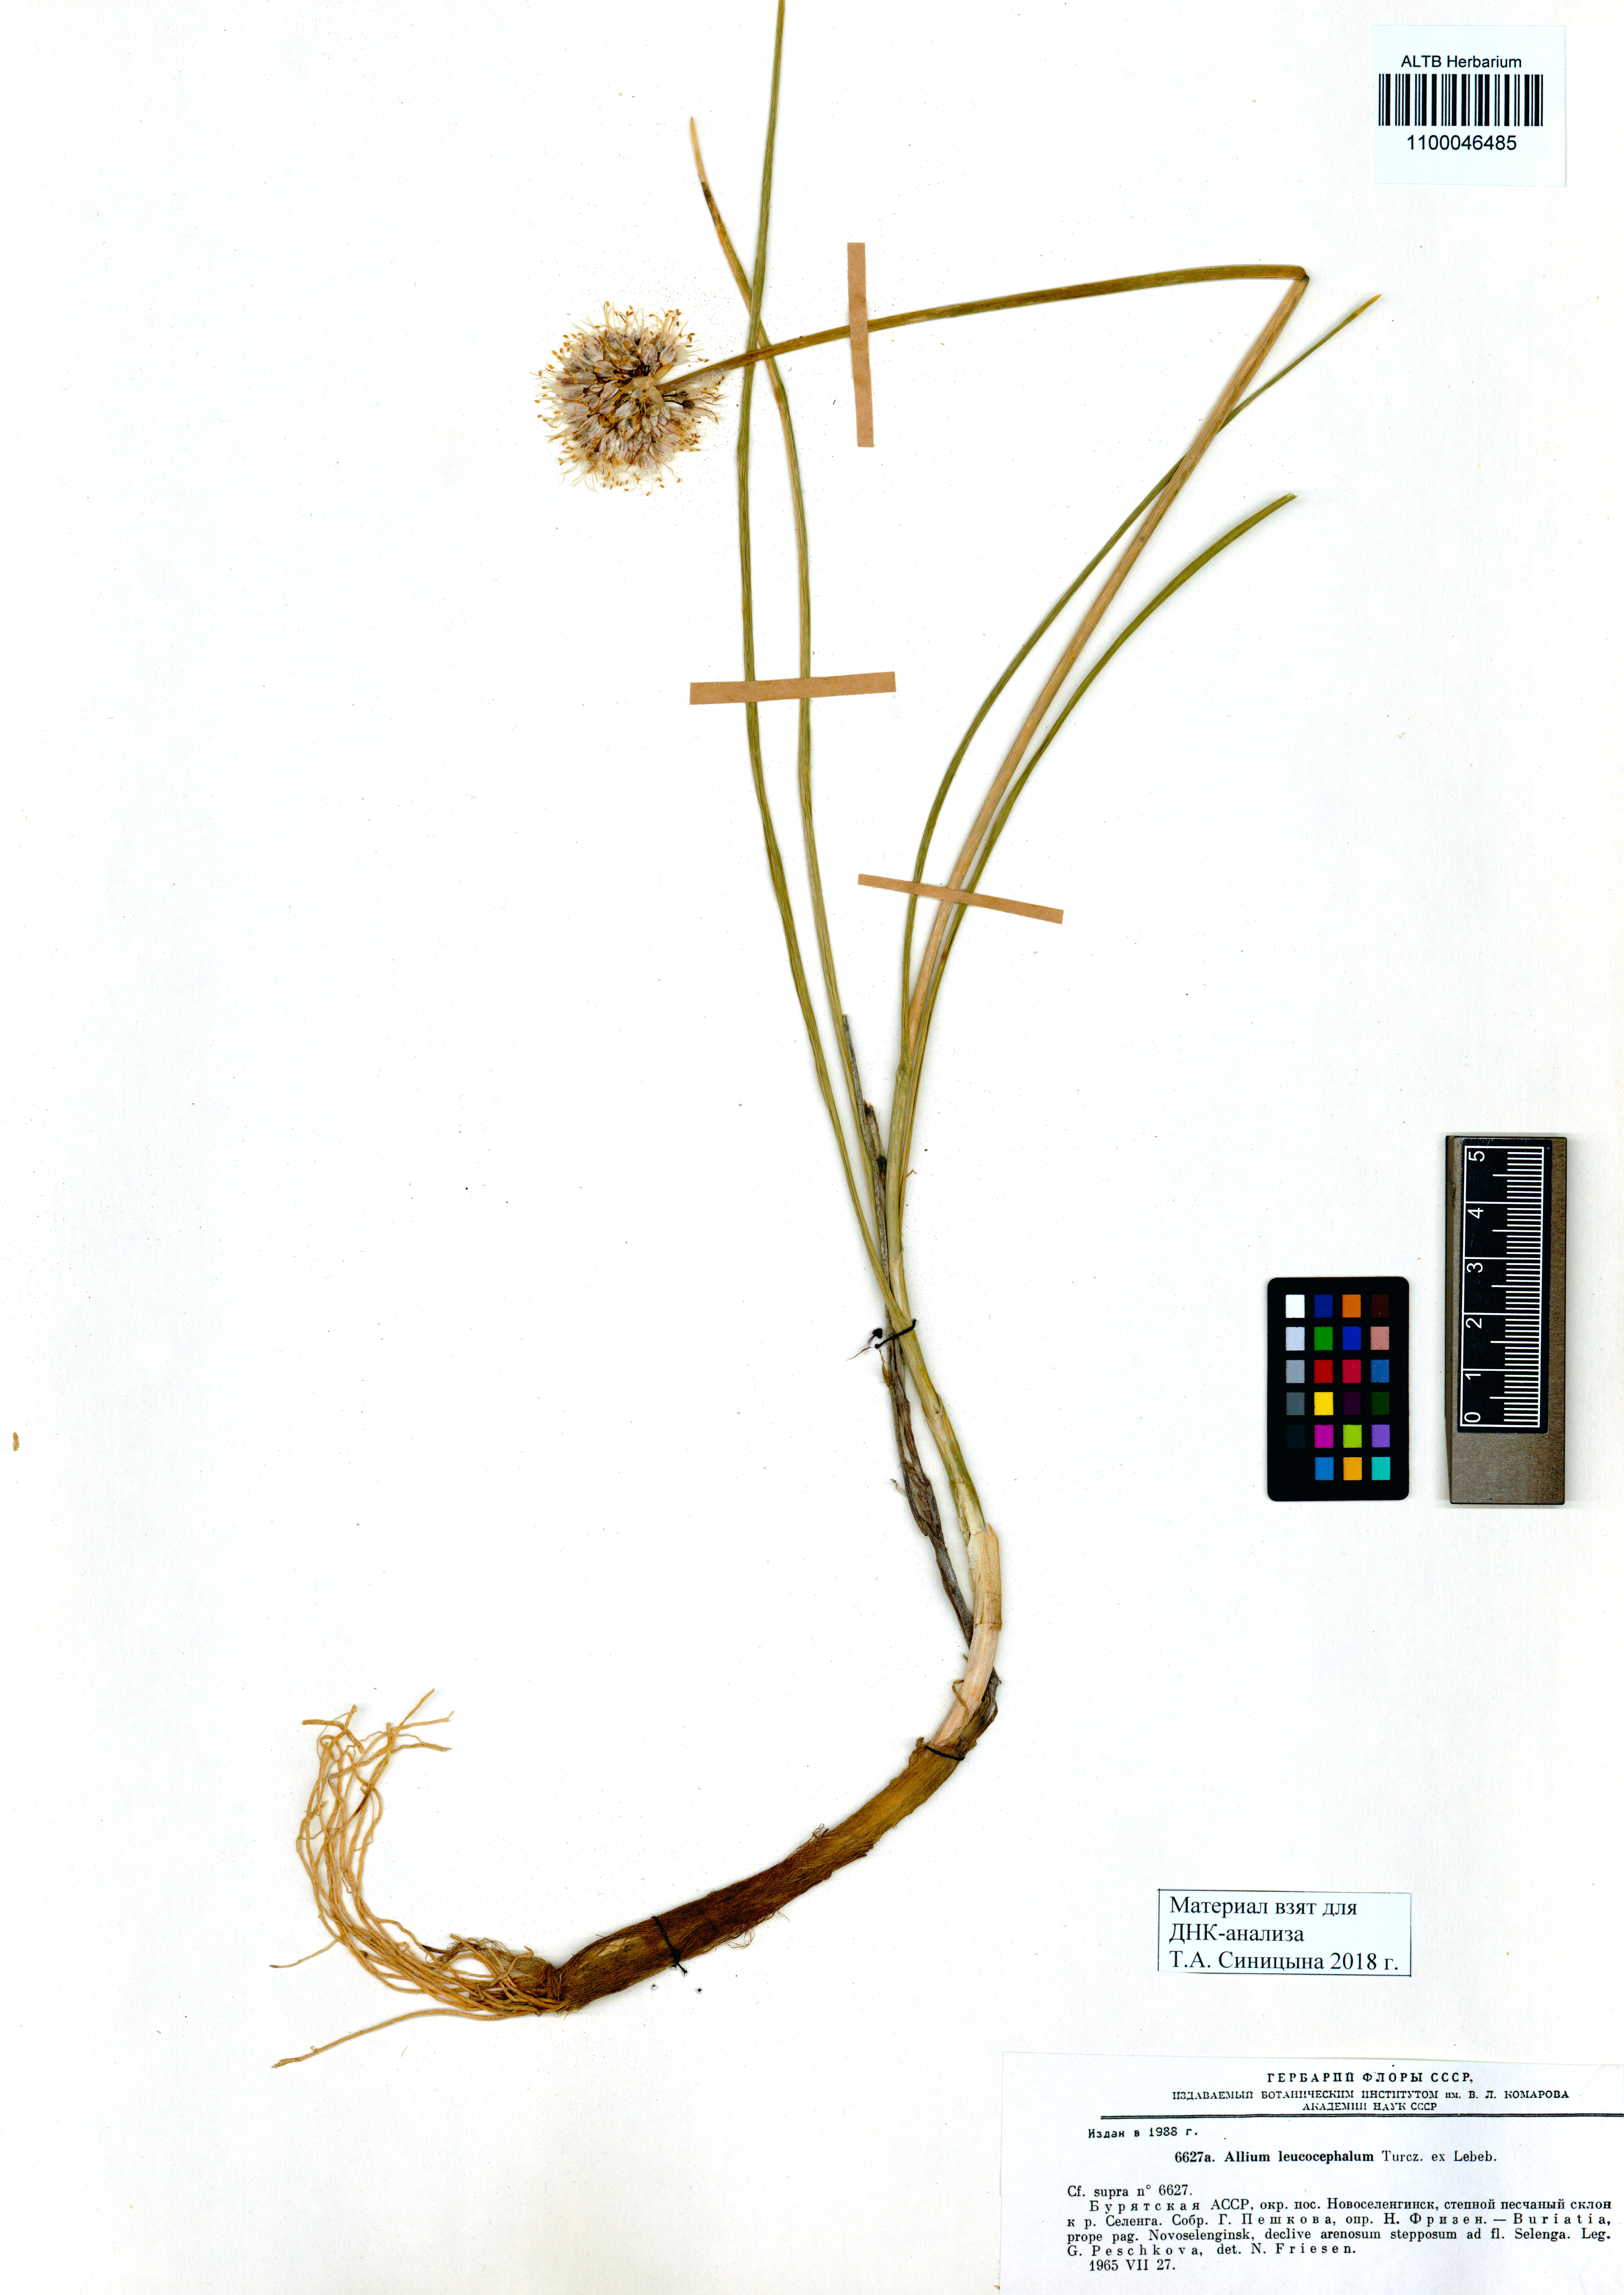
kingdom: Plantae
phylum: Tracheophyta
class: Liliopsida
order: Asparagales
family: Amaryllidaceae
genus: Allium
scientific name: Allium leucocephalum
